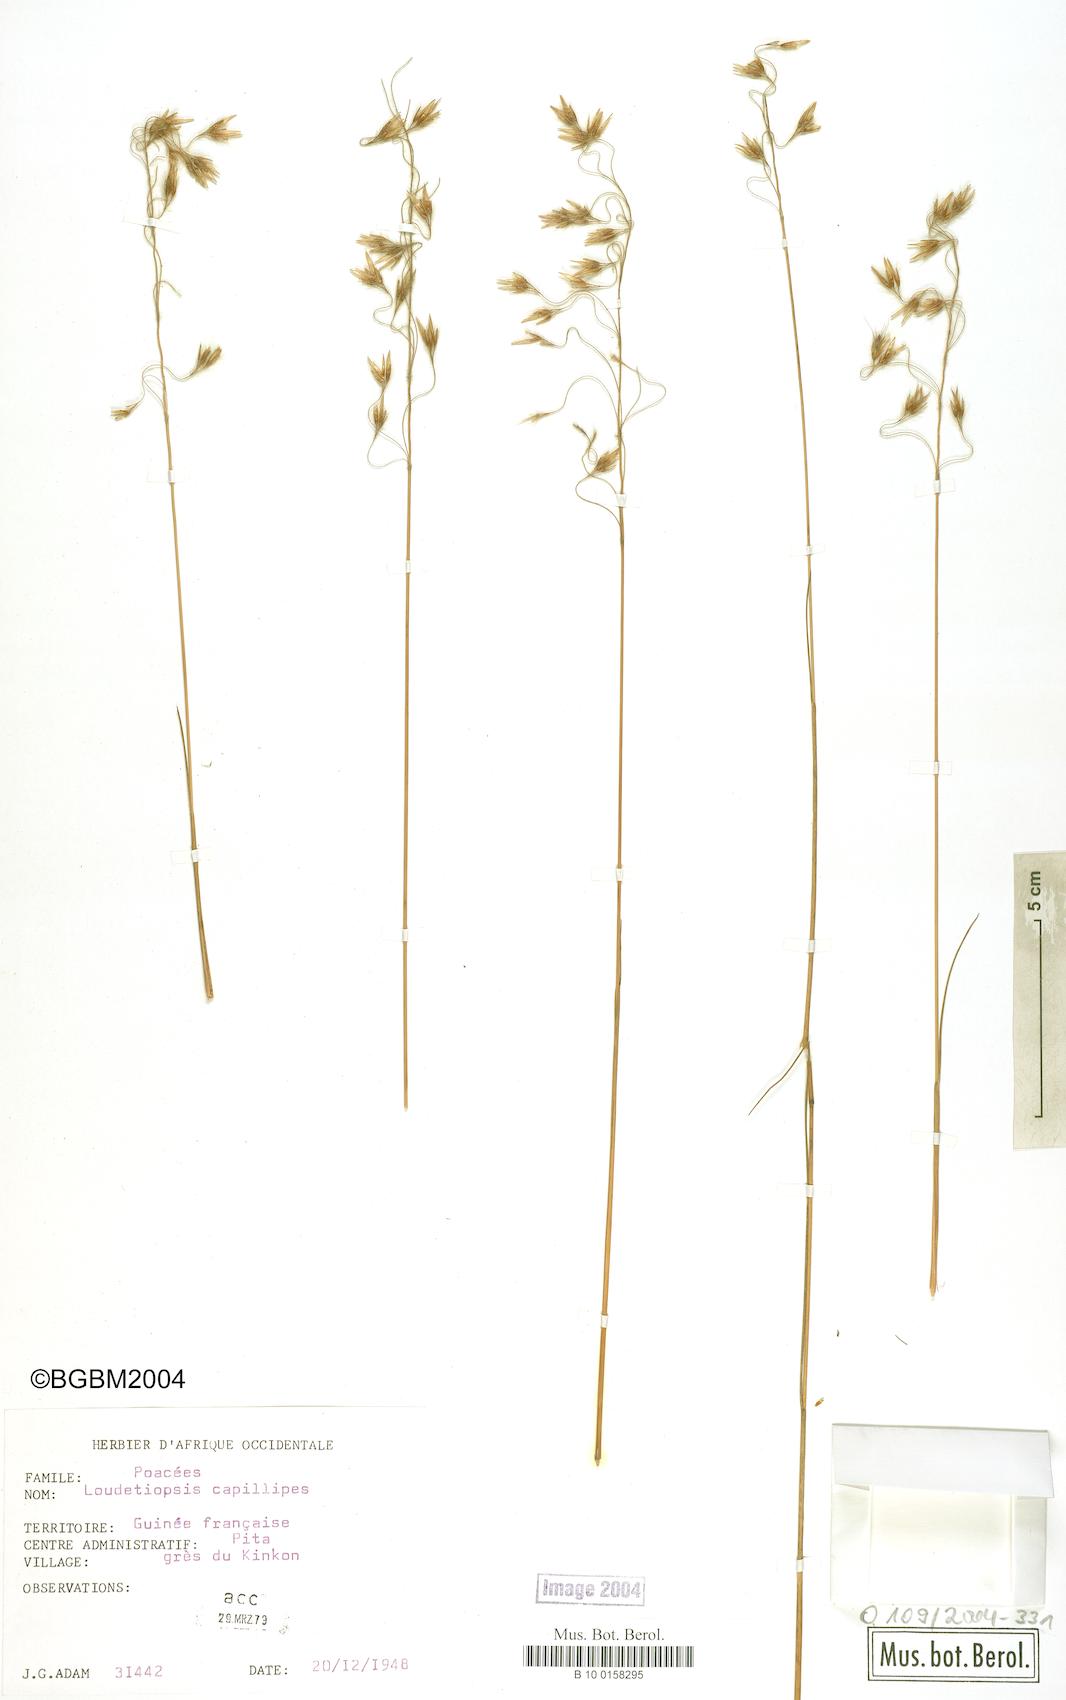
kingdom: Plantae
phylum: Tracheophyta
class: Liliopsida
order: Poales
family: Poaceae
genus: Loudetiopsis
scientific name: Loudetiopsis capillipes
